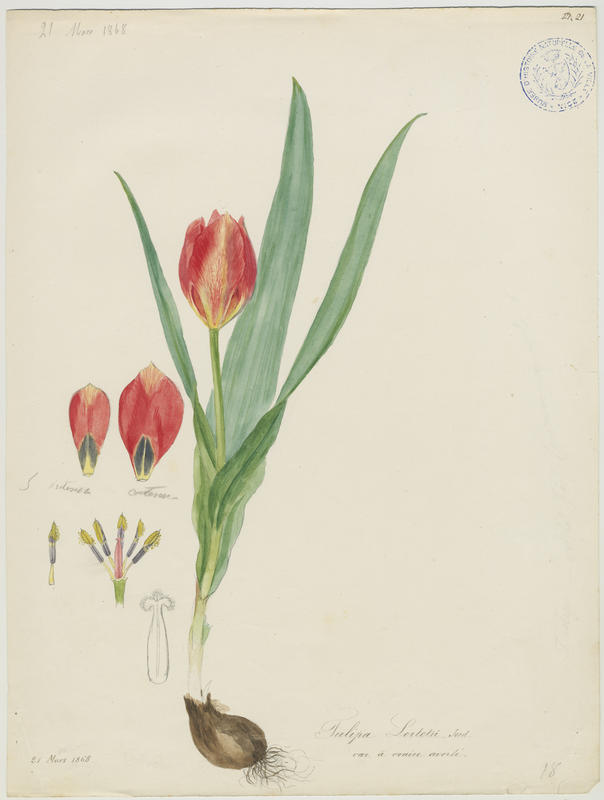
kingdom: Plantae
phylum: Tracheophyta
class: Liliopsida
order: Liliales
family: Liliaceae
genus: Tulipa
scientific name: Tulipa agenensis
